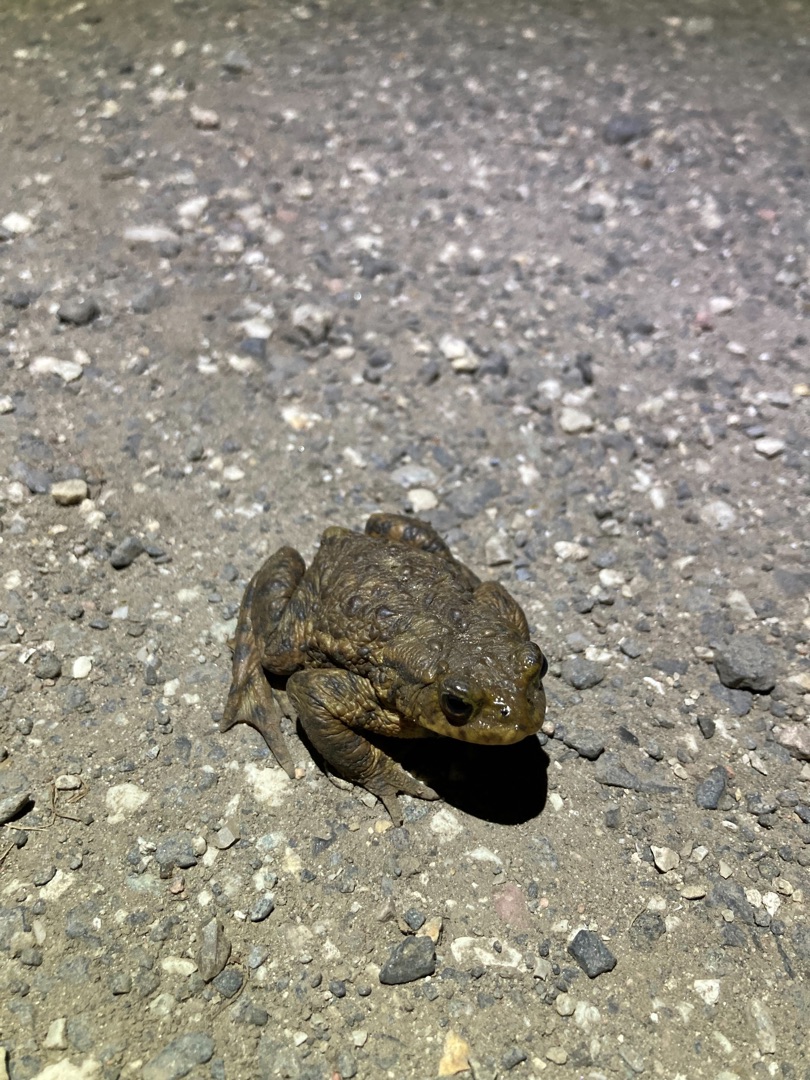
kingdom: Animalia
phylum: Chordata
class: Amphibia
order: Anura
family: Bufonidae
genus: Bufo
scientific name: Bufo bufo
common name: Skrubtudse
